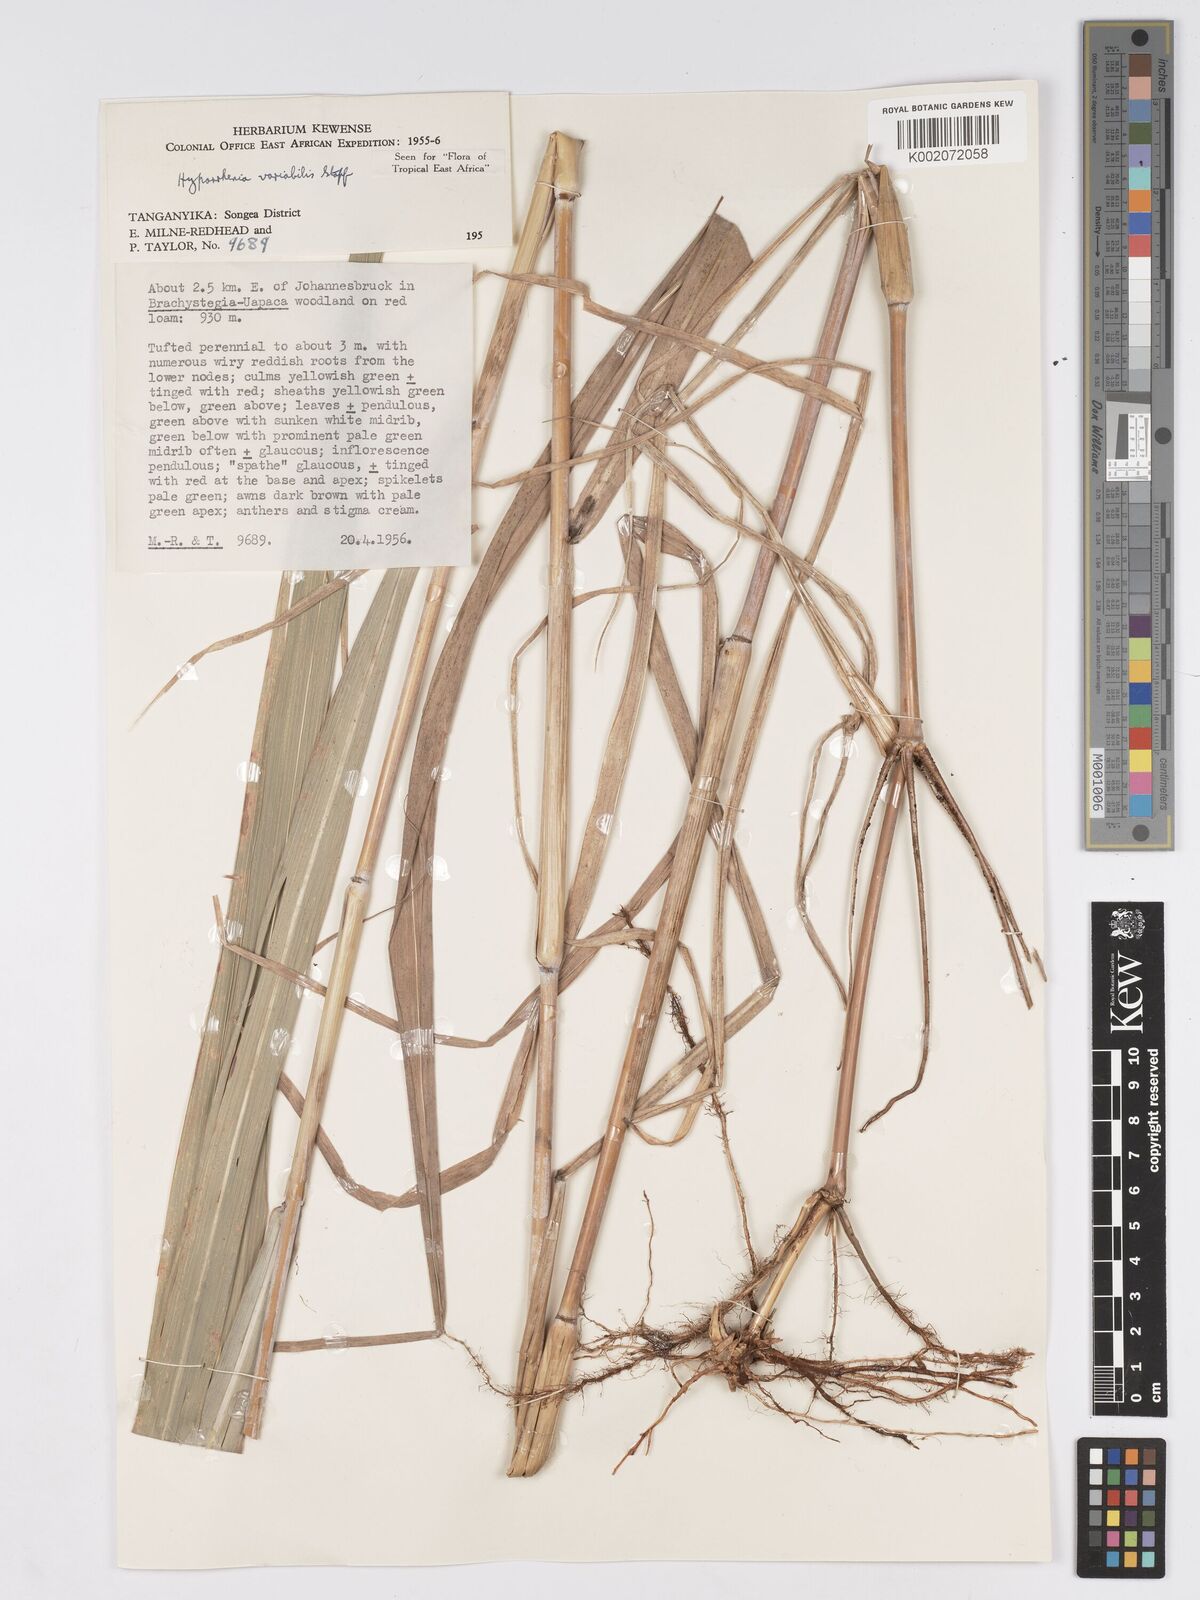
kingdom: Plantae
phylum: Tracheophyta
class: Liliopsida
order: Poales
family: Poaceae
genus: Hyparrhenia
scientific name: Hyparrhenia variabilis
